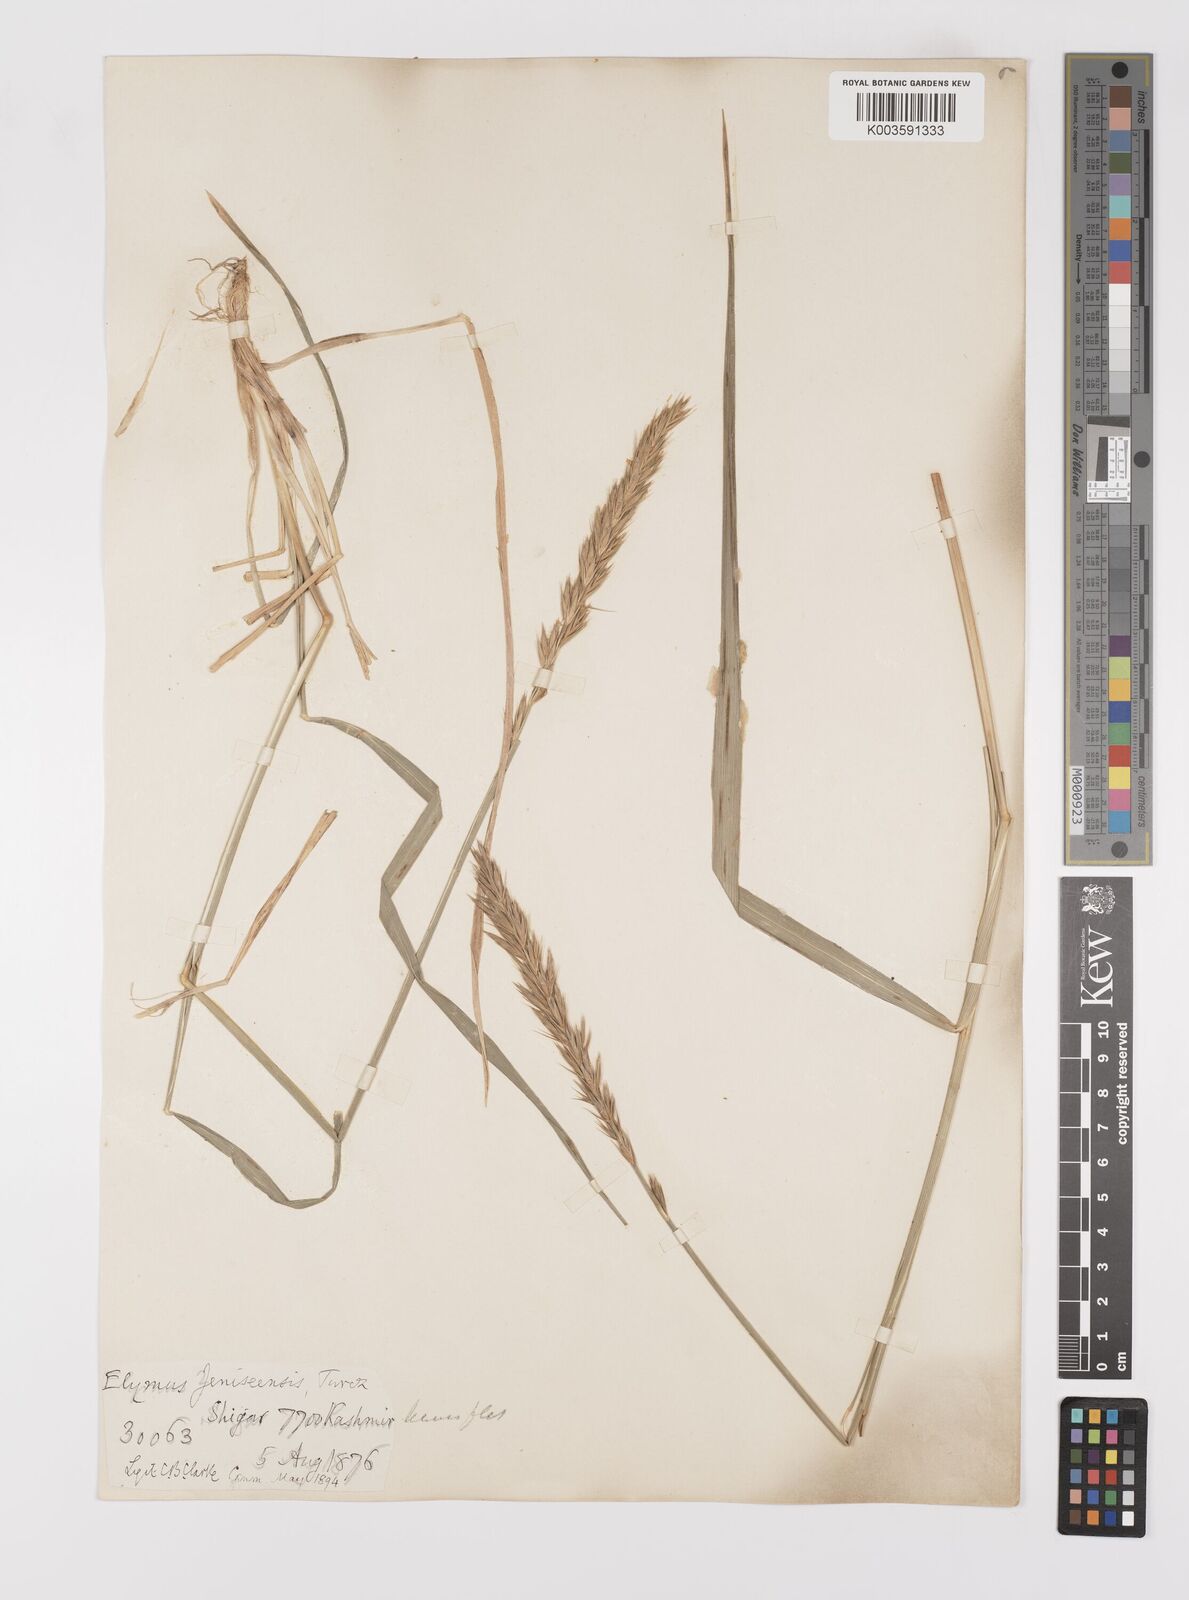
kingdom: Plantae
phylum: Tracheophyta
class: Liliopsida
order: Poales
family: Poaceae
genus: Leymus
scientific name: Leymus secalinus
